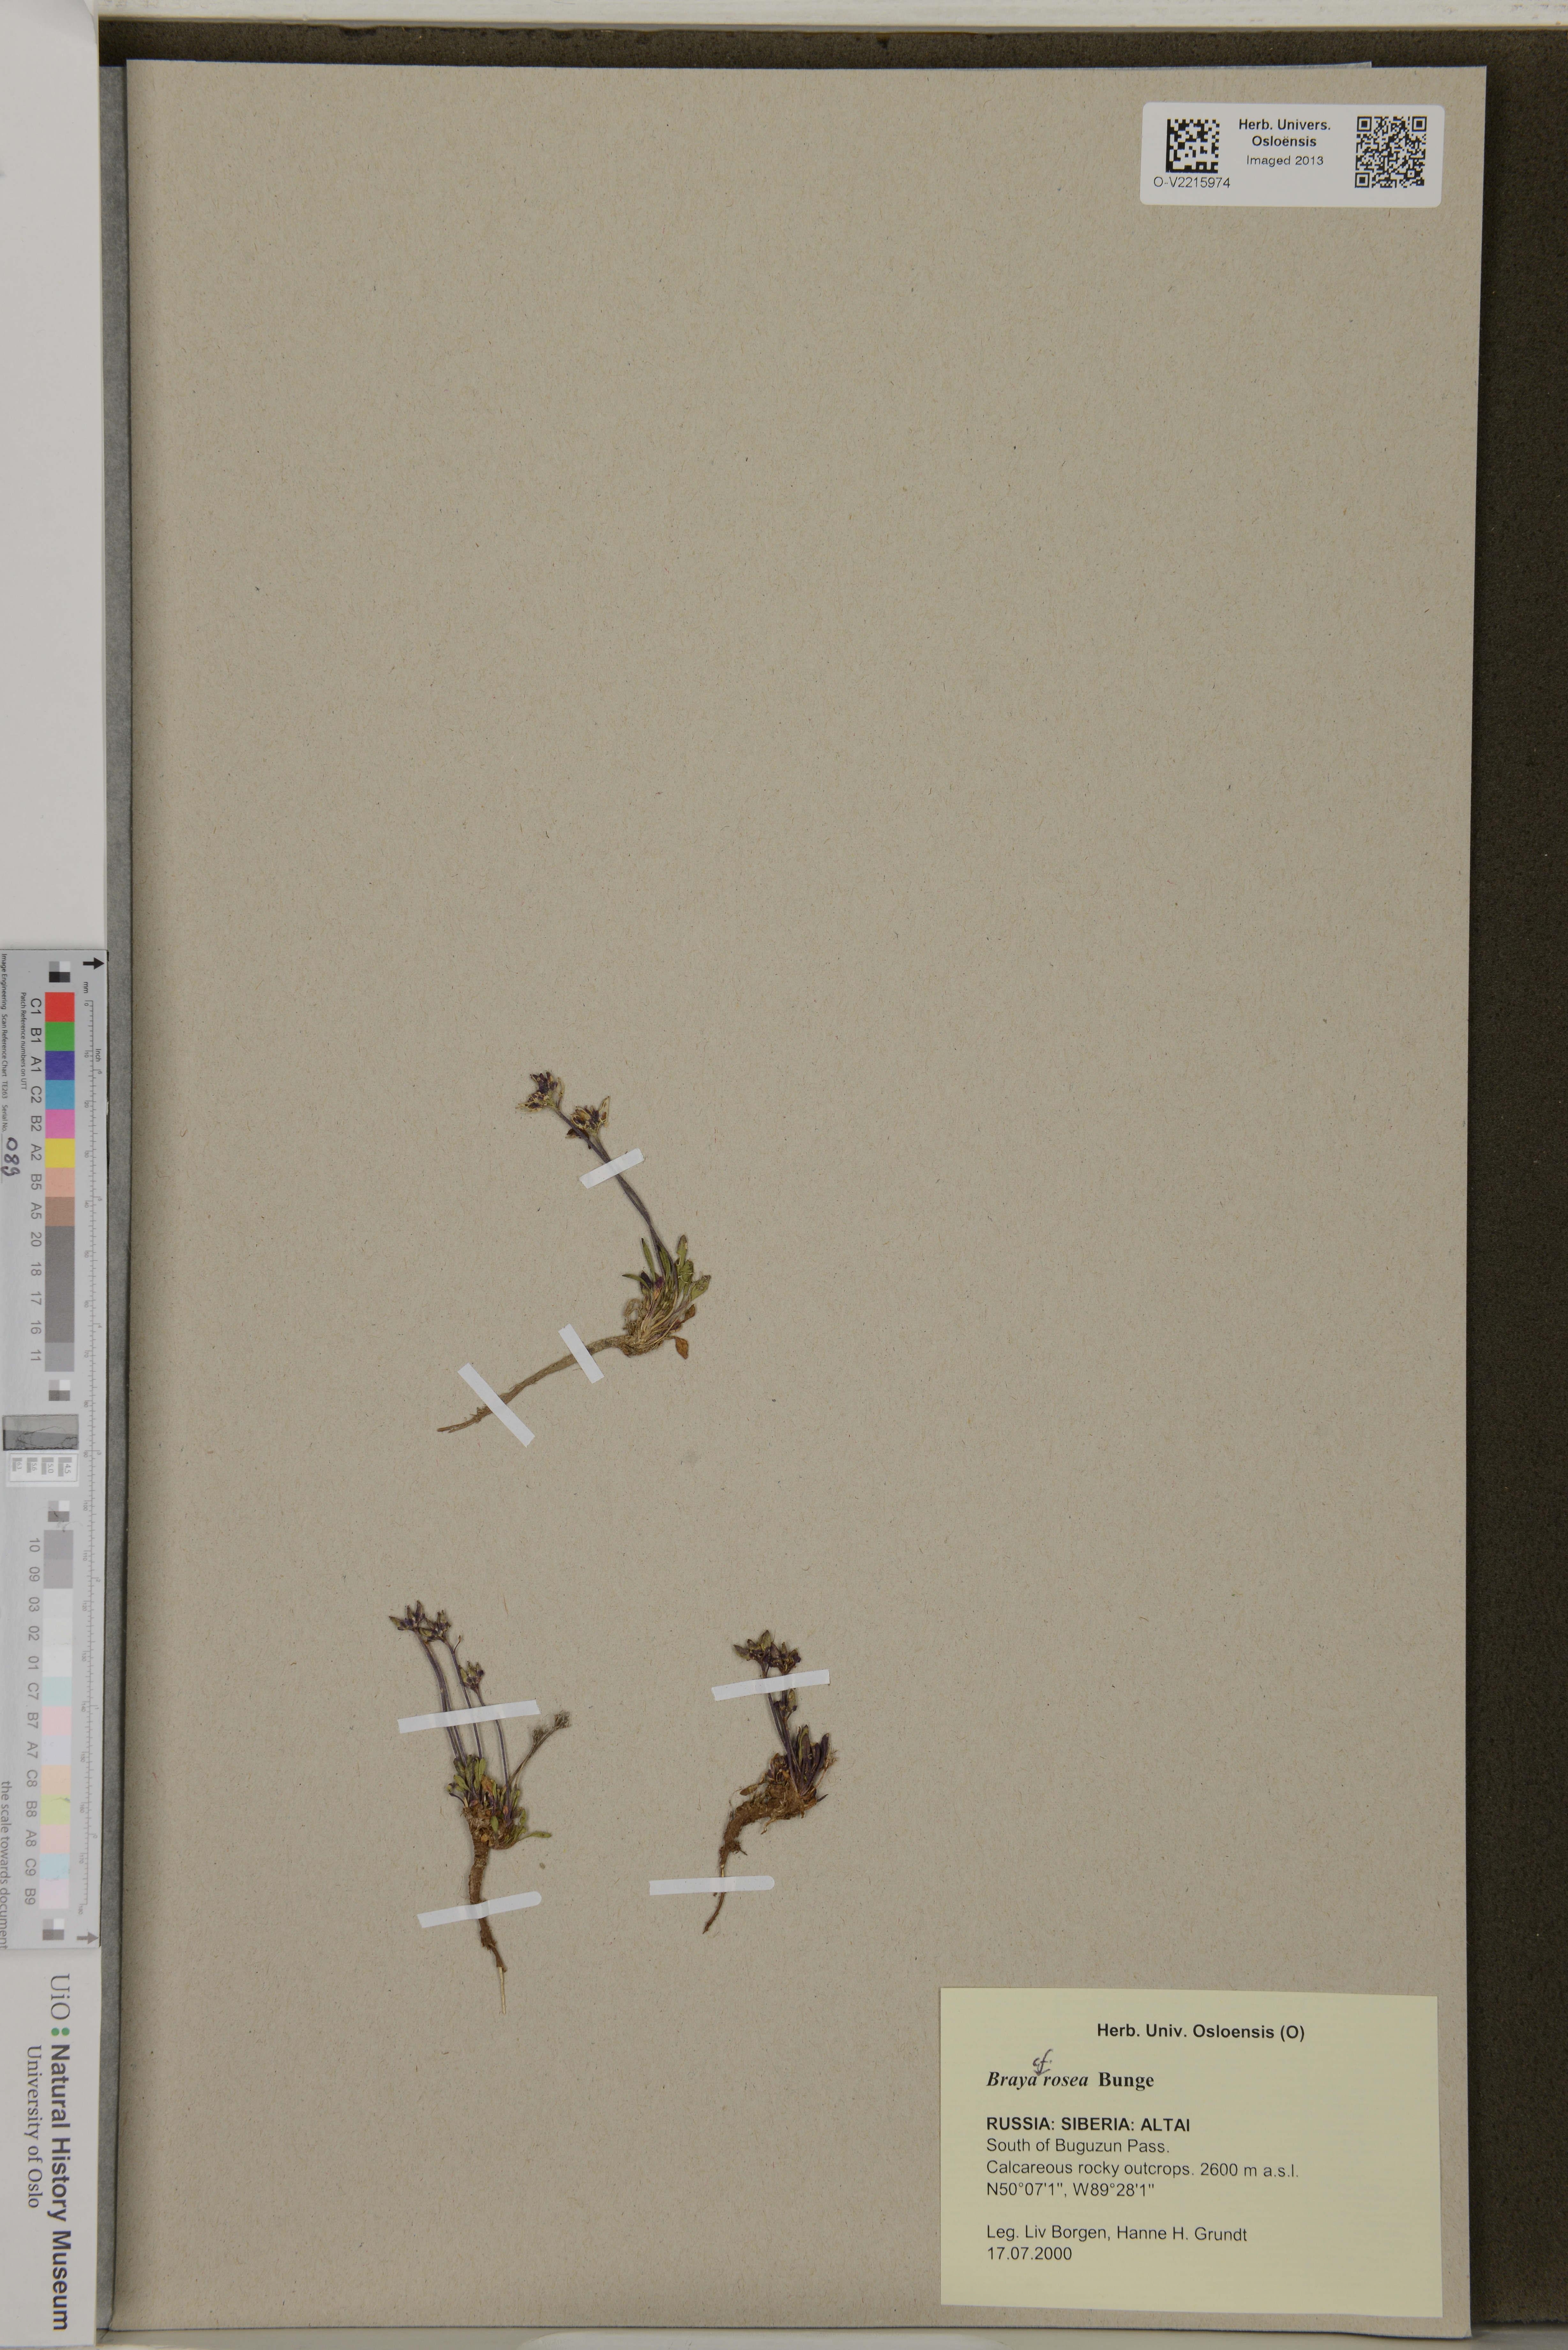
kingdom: Plantae
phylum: Tracheophyta
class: Magnoliopsida
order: Brassicales
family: Brassicaceae
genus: Braya
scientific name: Braya rosea
